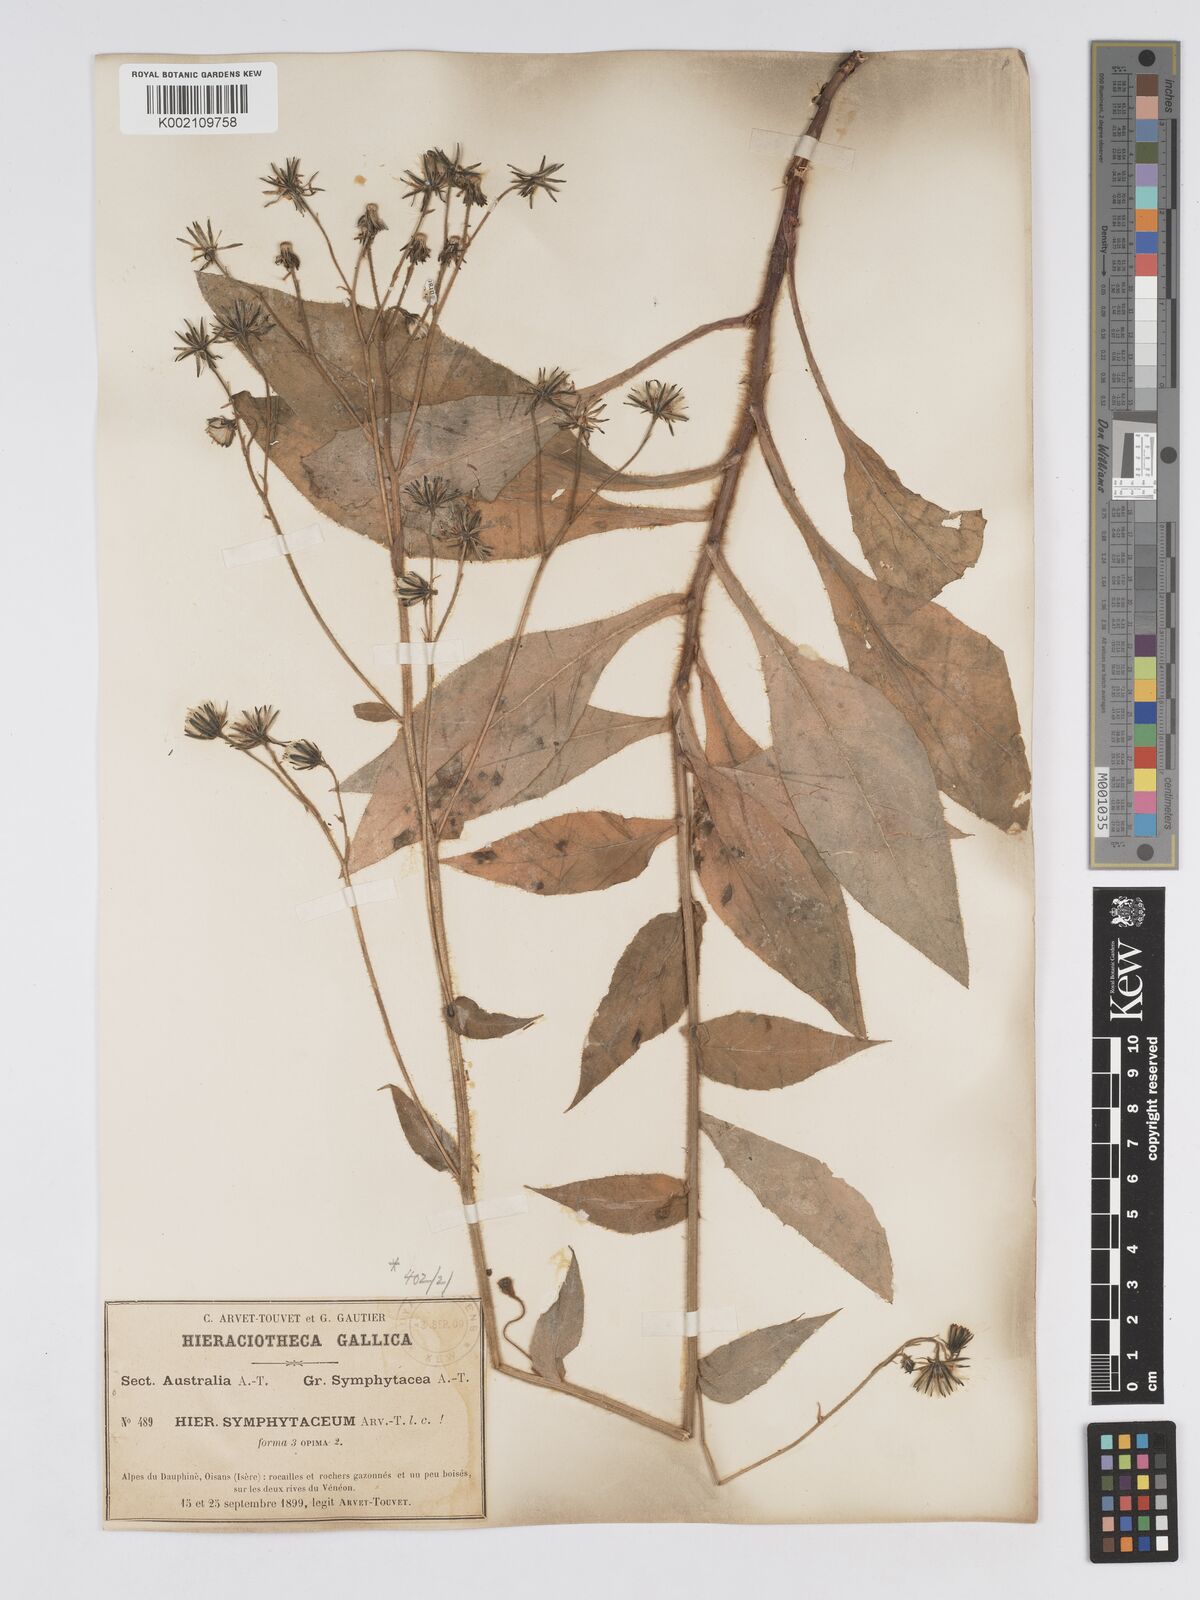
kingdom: Plantae
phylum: Tracheophyta
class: Magnoliopsida
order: Asterales
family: Asteraceae
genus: Hieracium
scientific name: Hieracium symphytaceum
